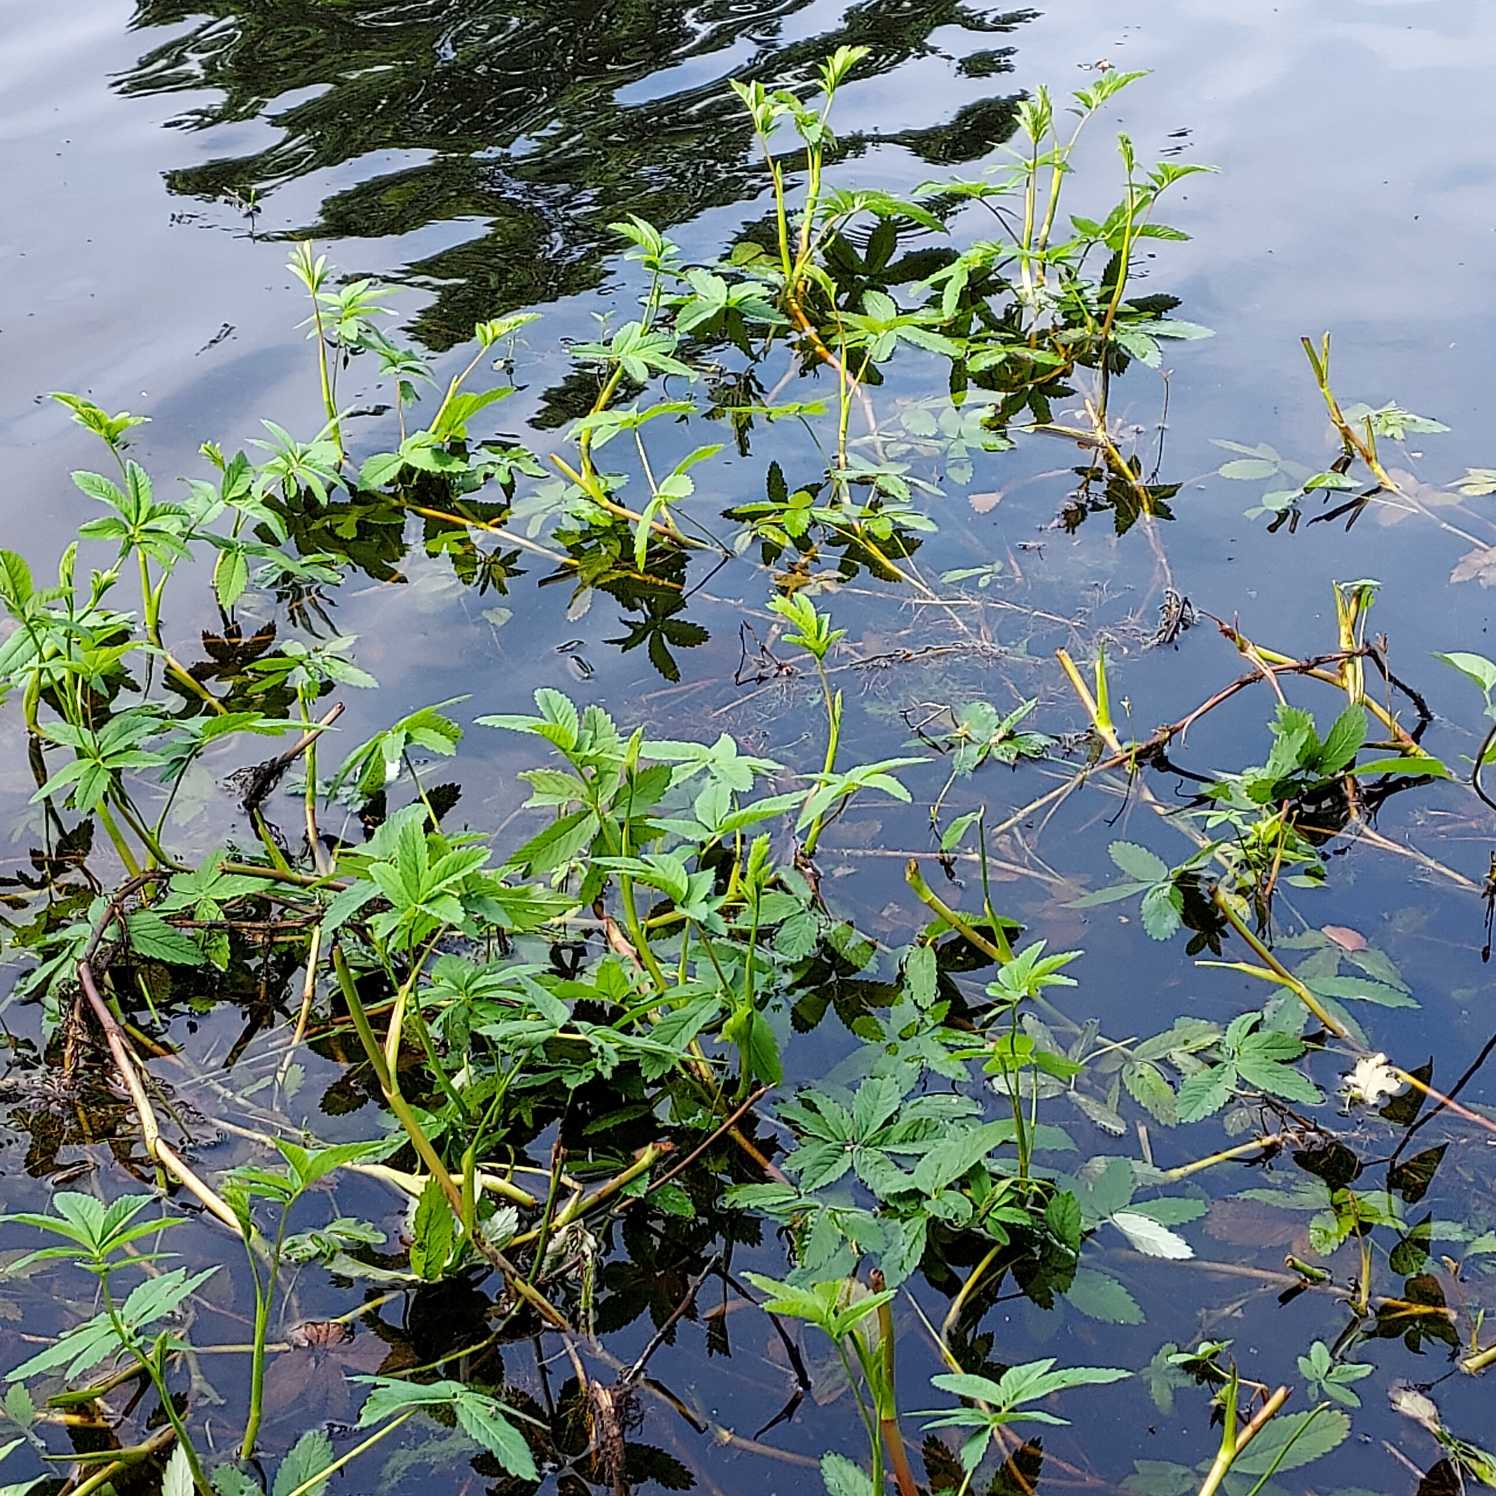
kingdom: Plantae
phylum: Tracheophyta
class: Magnoliopsida
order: Rosales
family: Rosaceae
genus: Comarum
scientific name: Comarum palustre
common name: Kragefod
